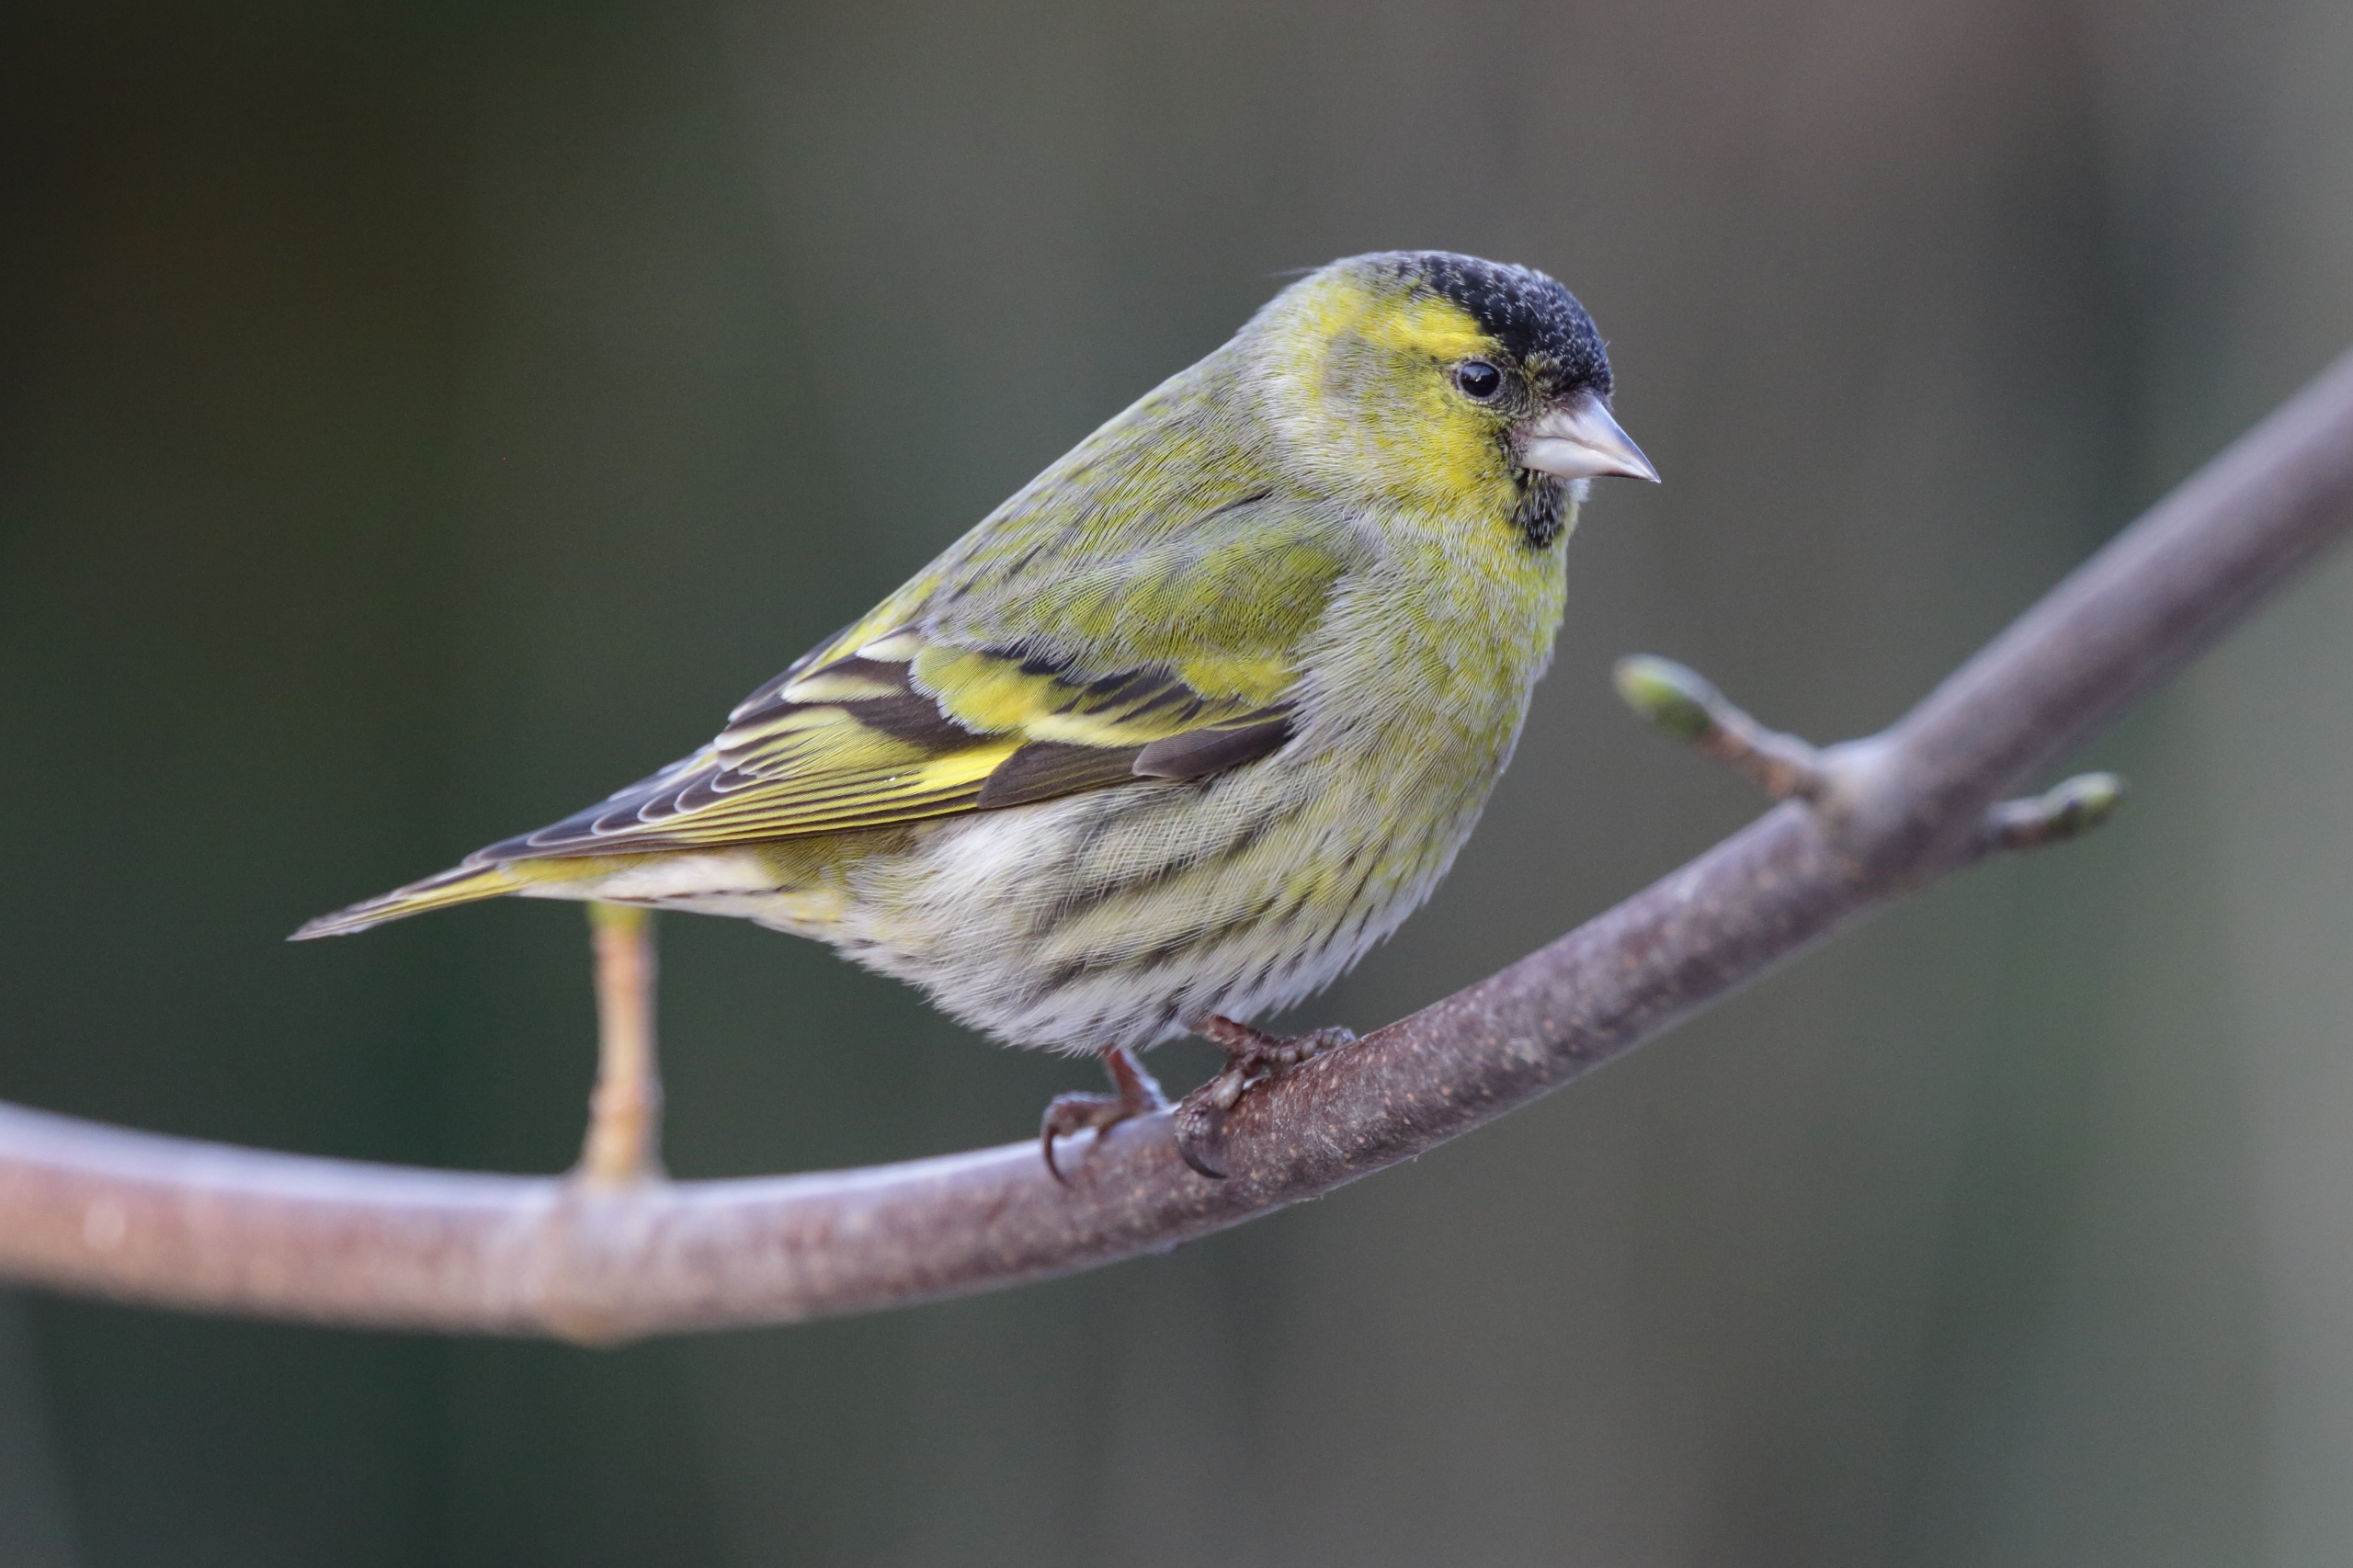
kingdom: Animalia
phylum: Chordata
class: Aves
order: Passeriformes
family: Fringillidae
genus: Spinus
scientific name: Spinus spinus
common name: Grønsisken
